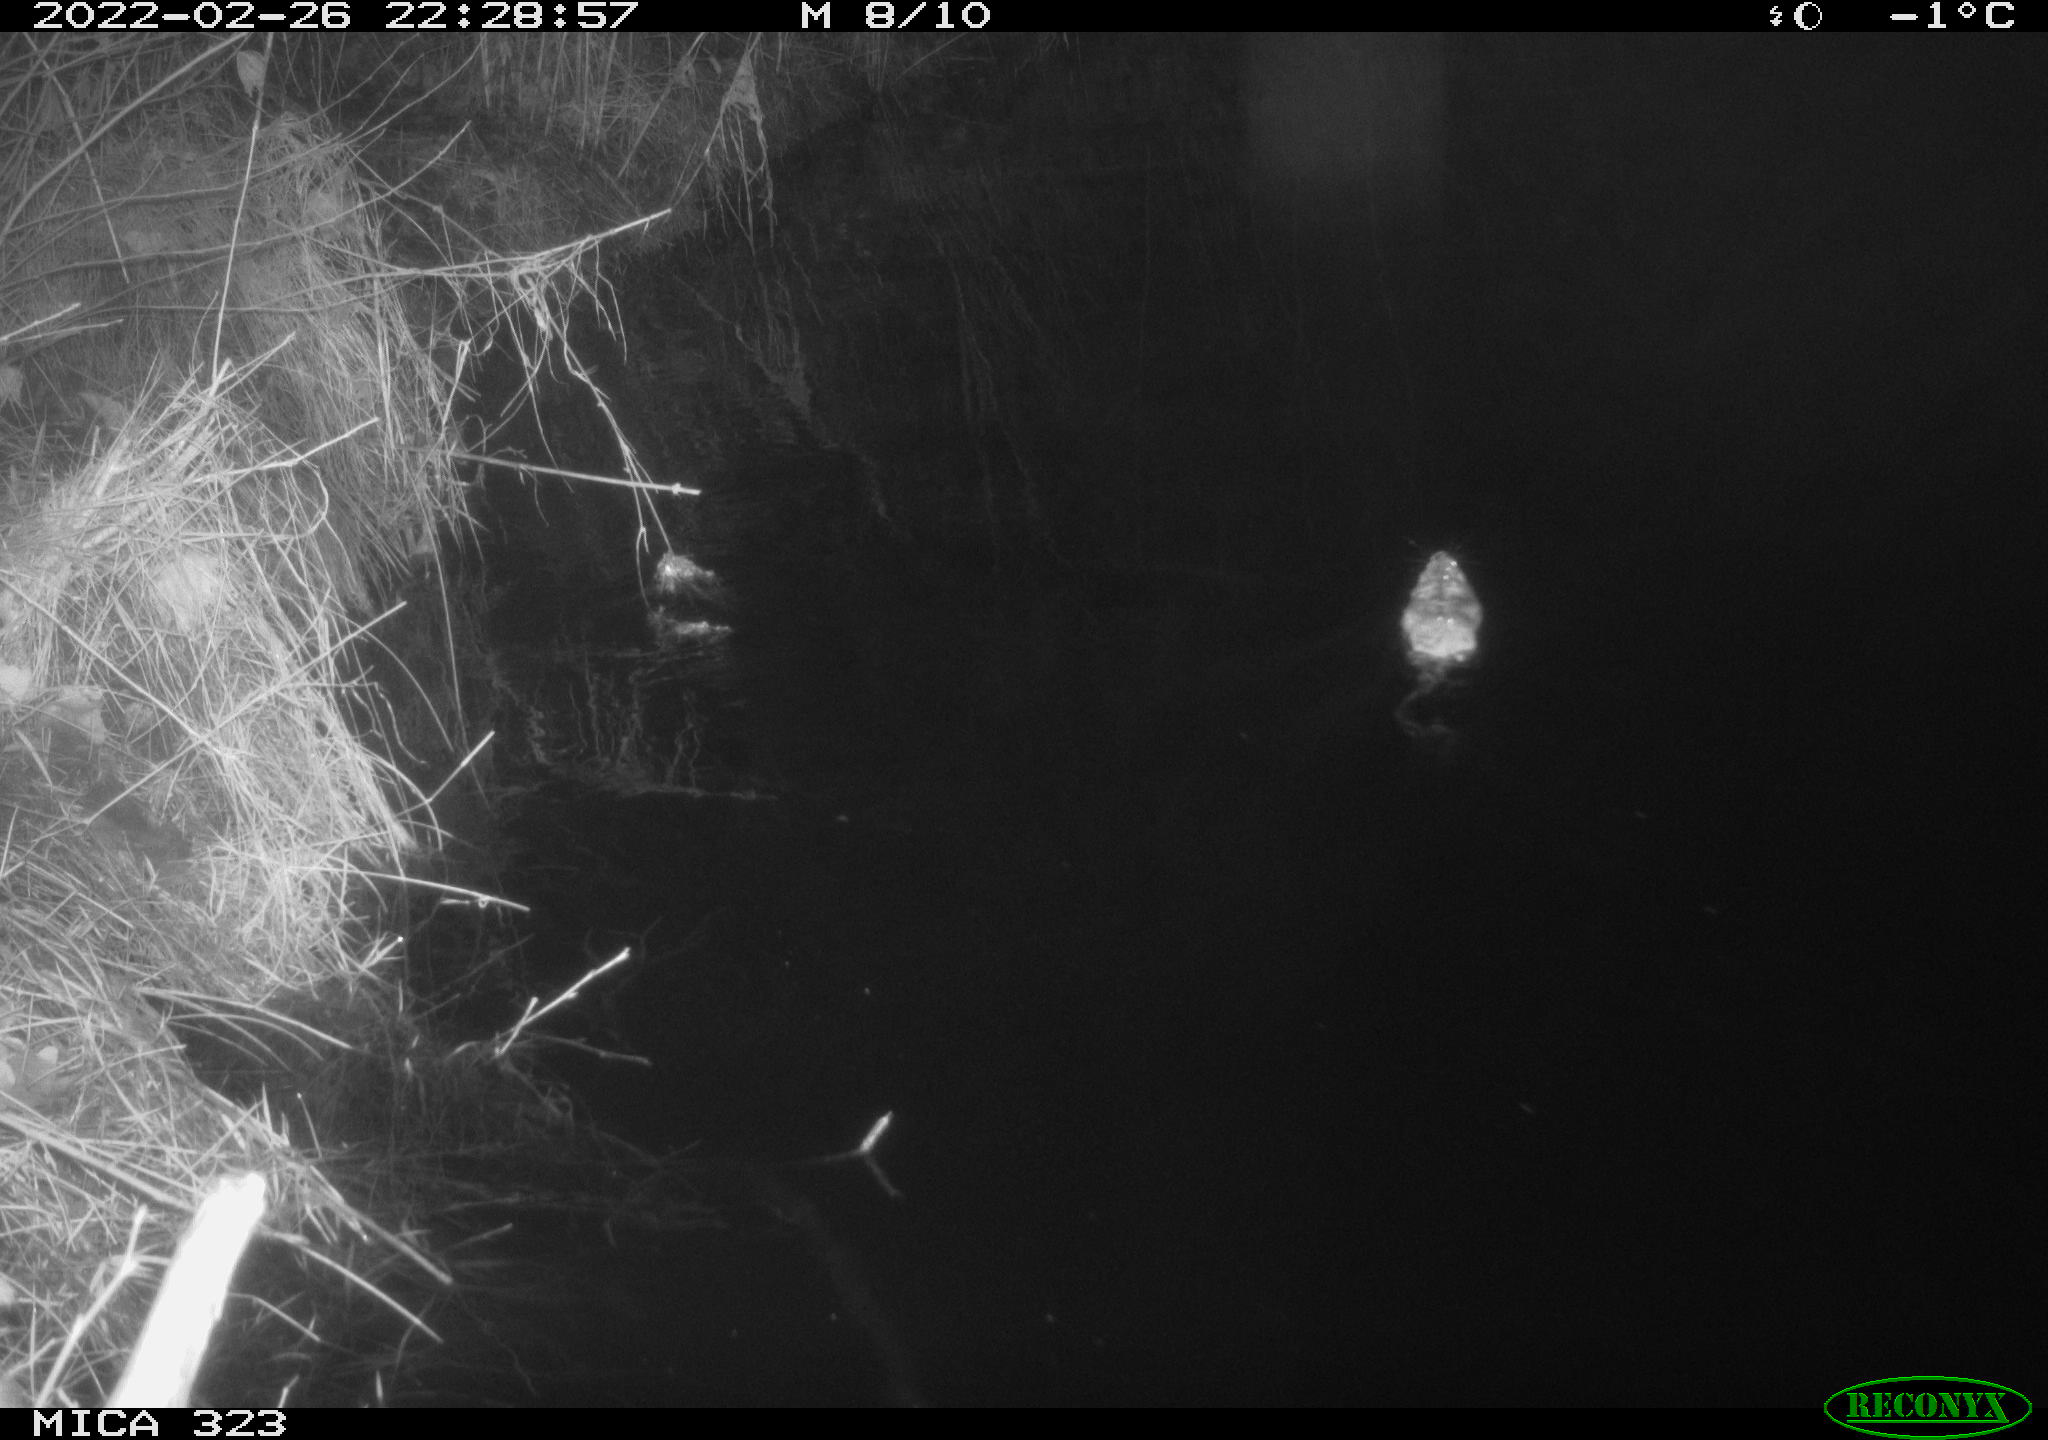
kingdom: Animalia
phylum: Chordata
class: Mammalia
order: Rodentia
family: Cricetidae
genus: Ondatra
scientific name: Ondatra zibethicus
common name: Muskrat
